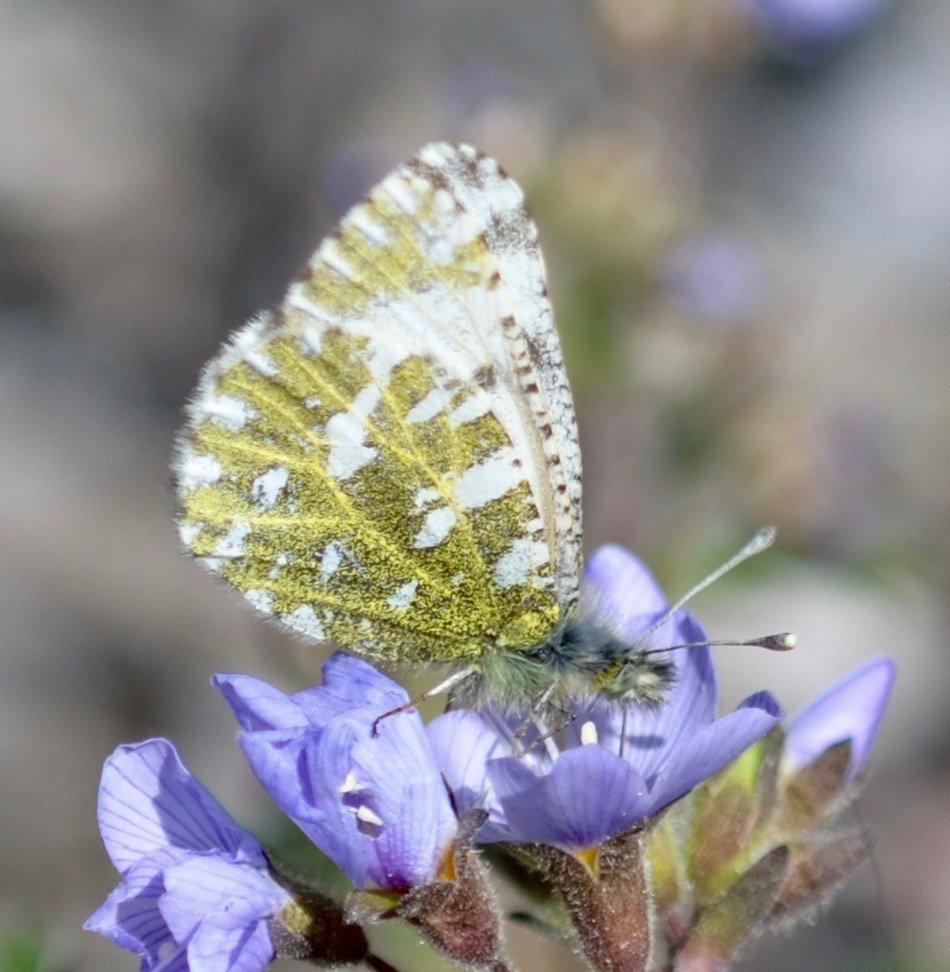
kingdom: Animalia
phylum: Arthropoda
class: Insecta
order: Lepidoptera
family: Pieridae
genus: Euchloe
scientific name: Euchloe creusa
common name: Northern Marble
